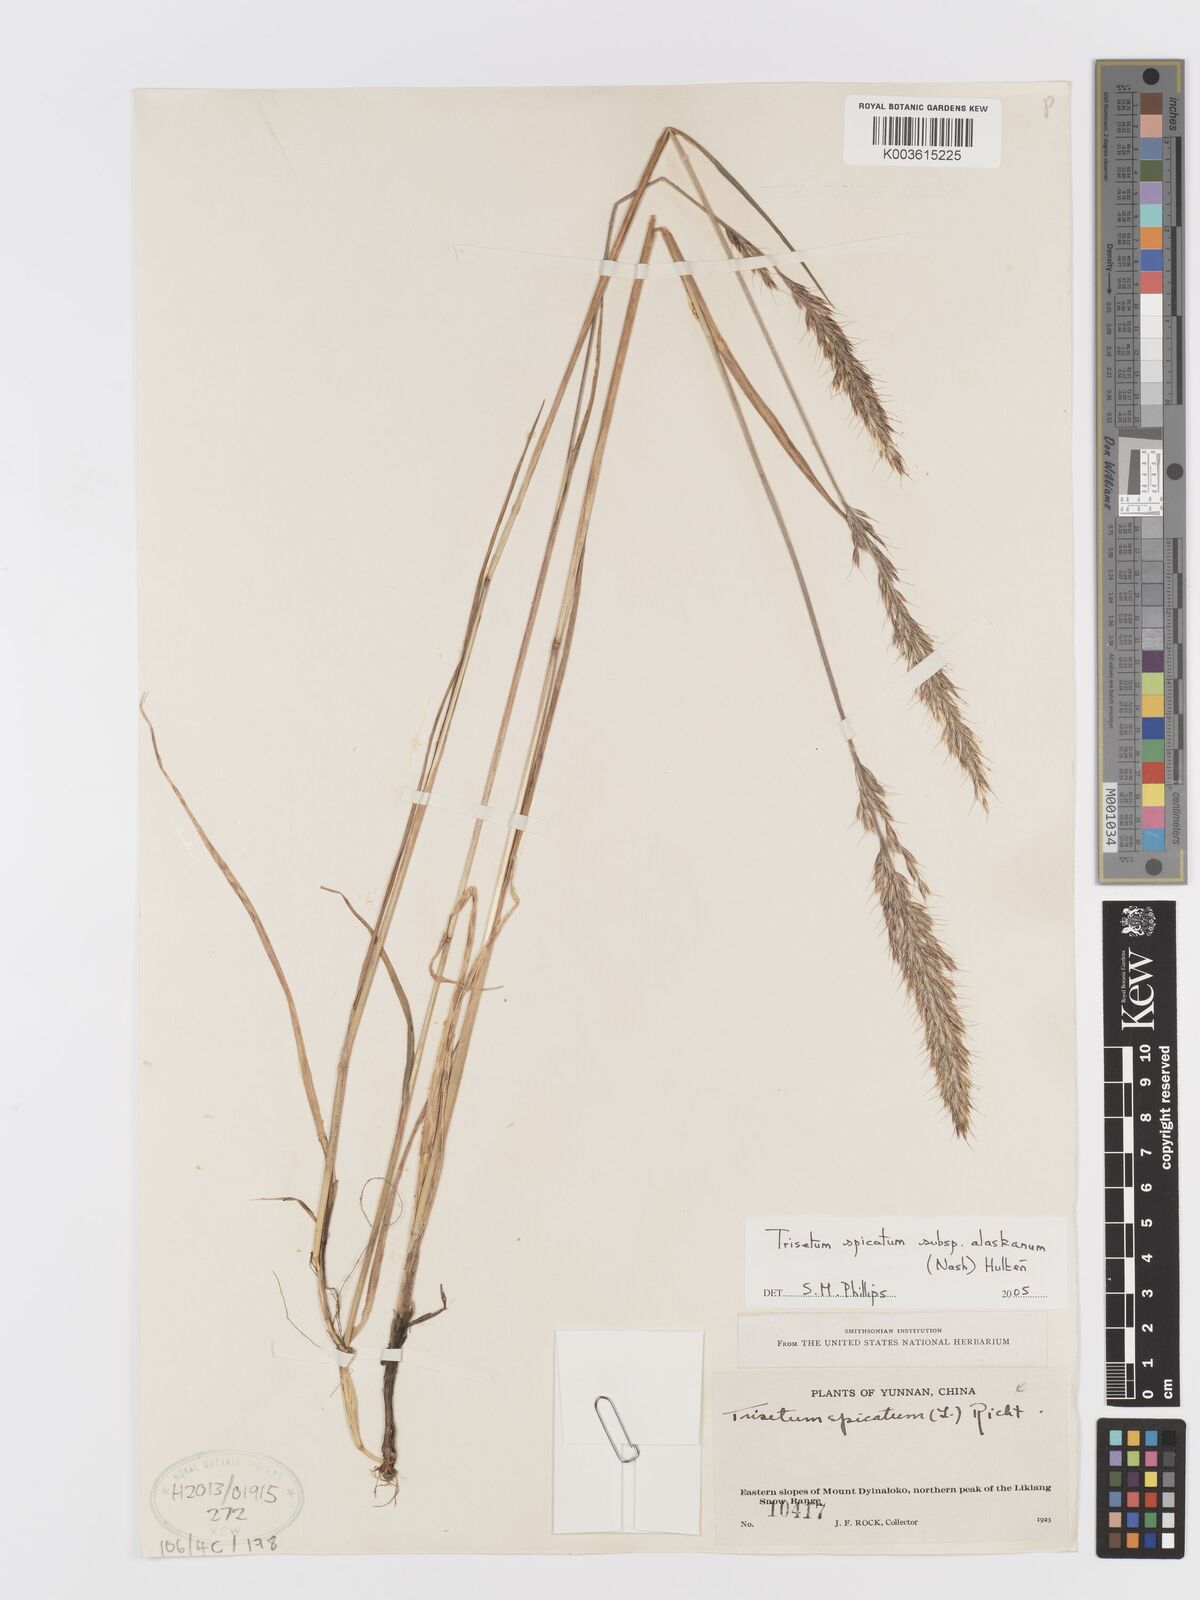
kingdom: Plantae
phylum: Tracheophyta
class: Liliopsida
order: Poales
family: Poaceae
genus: Koeleria
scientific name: Koeleria spicata
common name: Mountain trisetum
